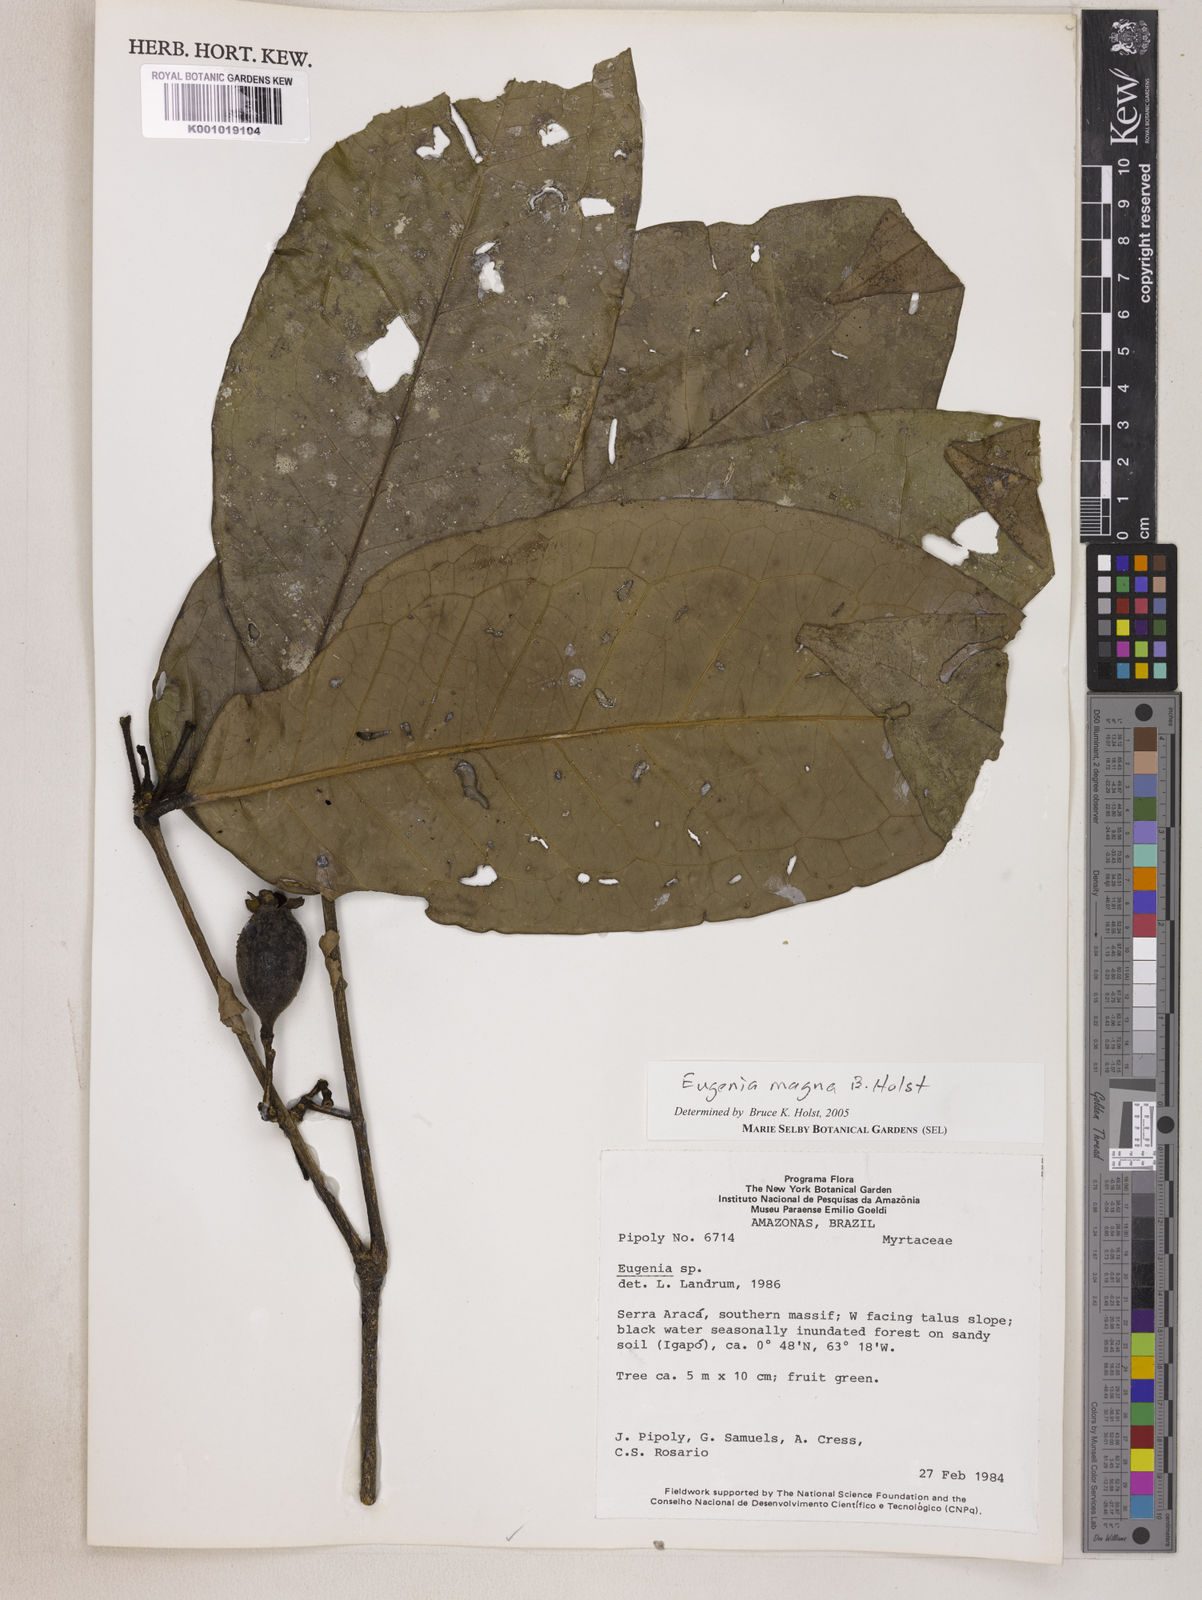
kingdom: Plantae
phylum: Tracheophyta
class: Magnoliopsida
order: Myrtales
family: Myrtaceae
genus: Eugenia
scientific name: Eugenia magna
